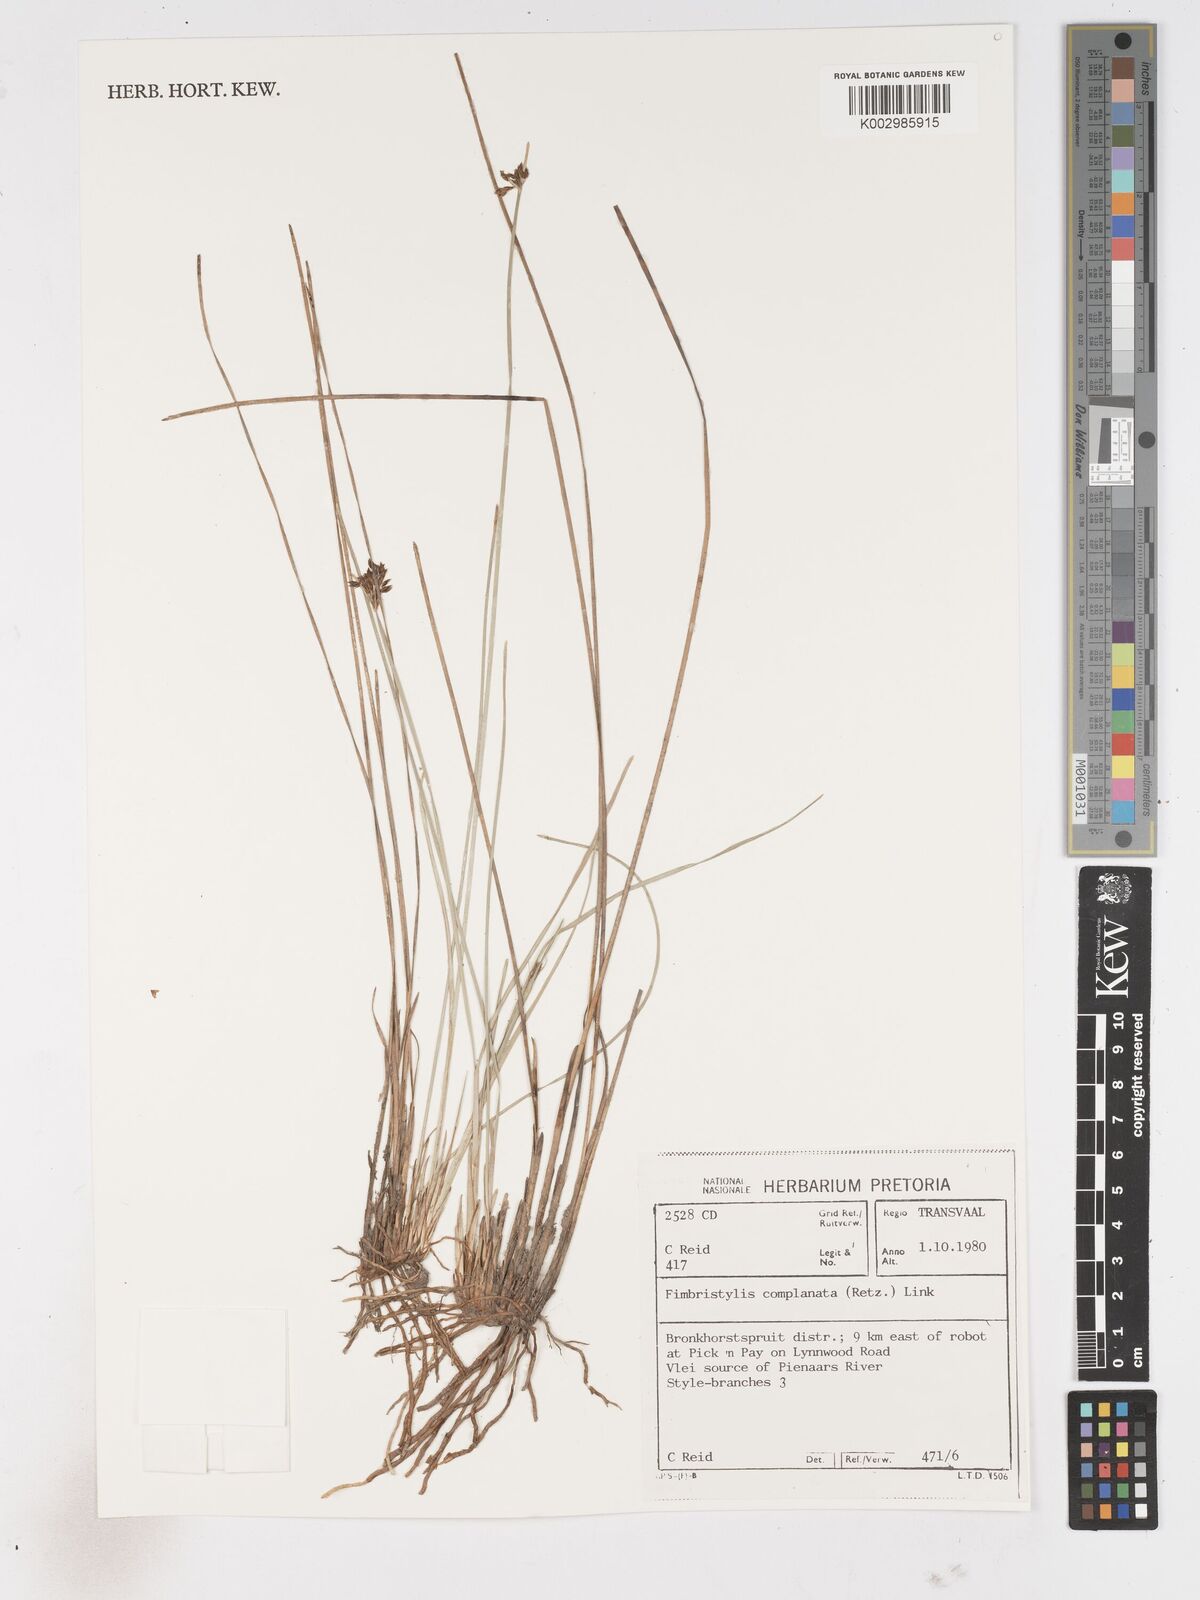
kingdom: Plantae
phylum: Tracheophyta
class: Liliopsida
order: Poales
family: Cyperaceae
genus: Fimbristylis
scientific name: Fimbristylis complanata
